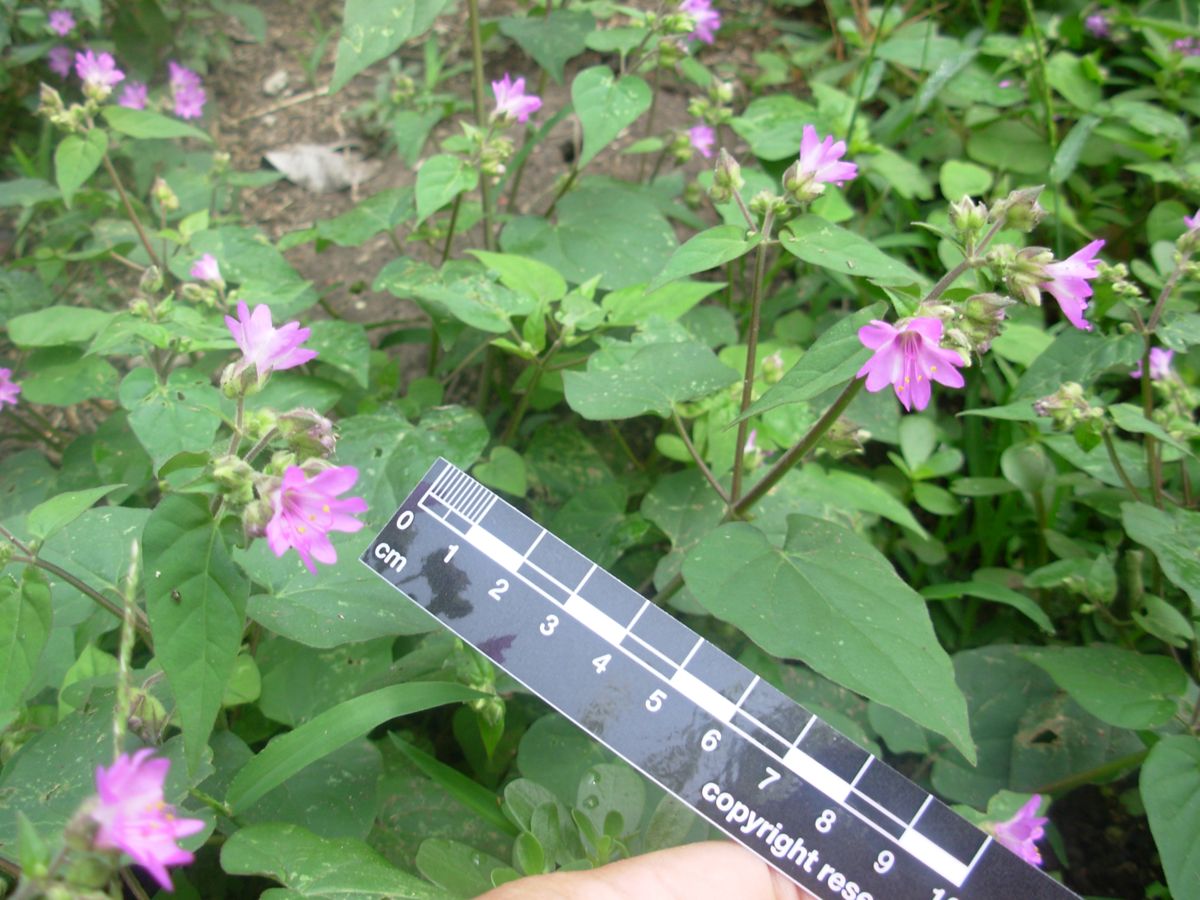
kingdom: Plantae
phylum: Tracheophyta
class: Magnoliopsida
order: Caryophyllales
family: Nyctaginaceae
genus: Mirabilis
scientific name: Mirabilis violacea
